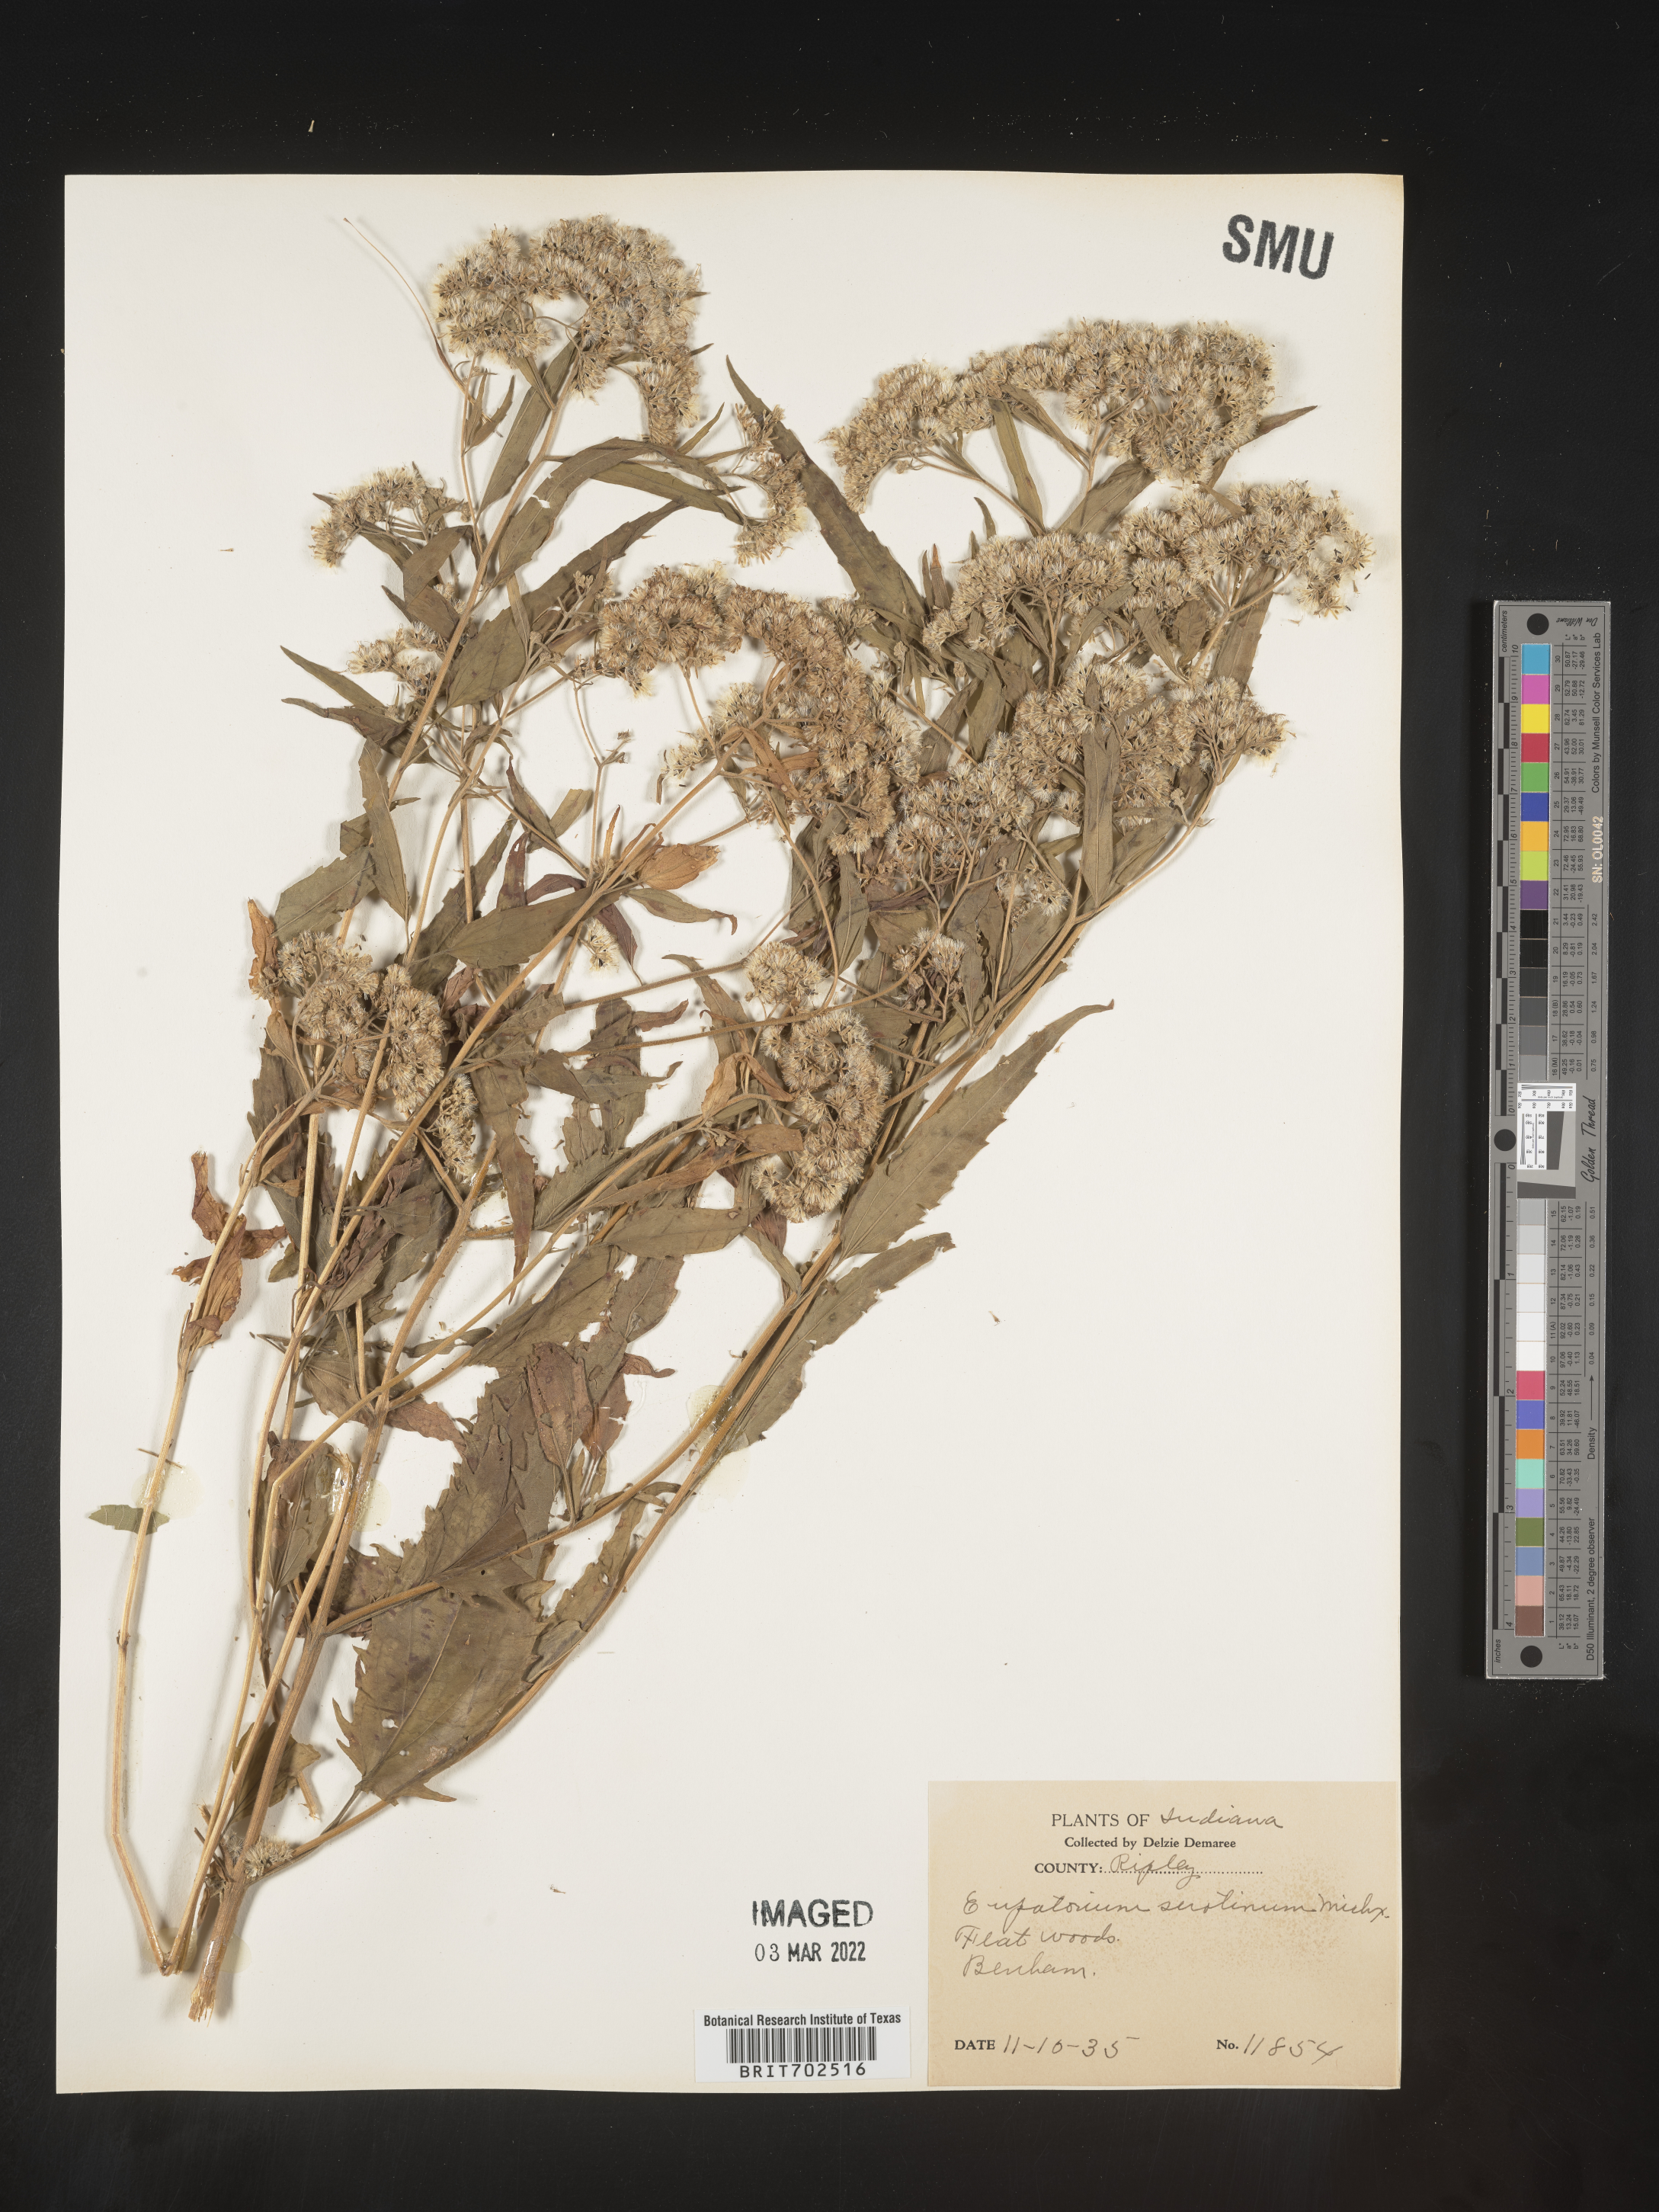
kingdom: Plantae
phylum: Tracheophyta
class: Magnoliopsida
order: Asterales
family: Asteraceae
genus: Eupatorium
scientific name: Eupatorium serotinum
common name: Late boneset
